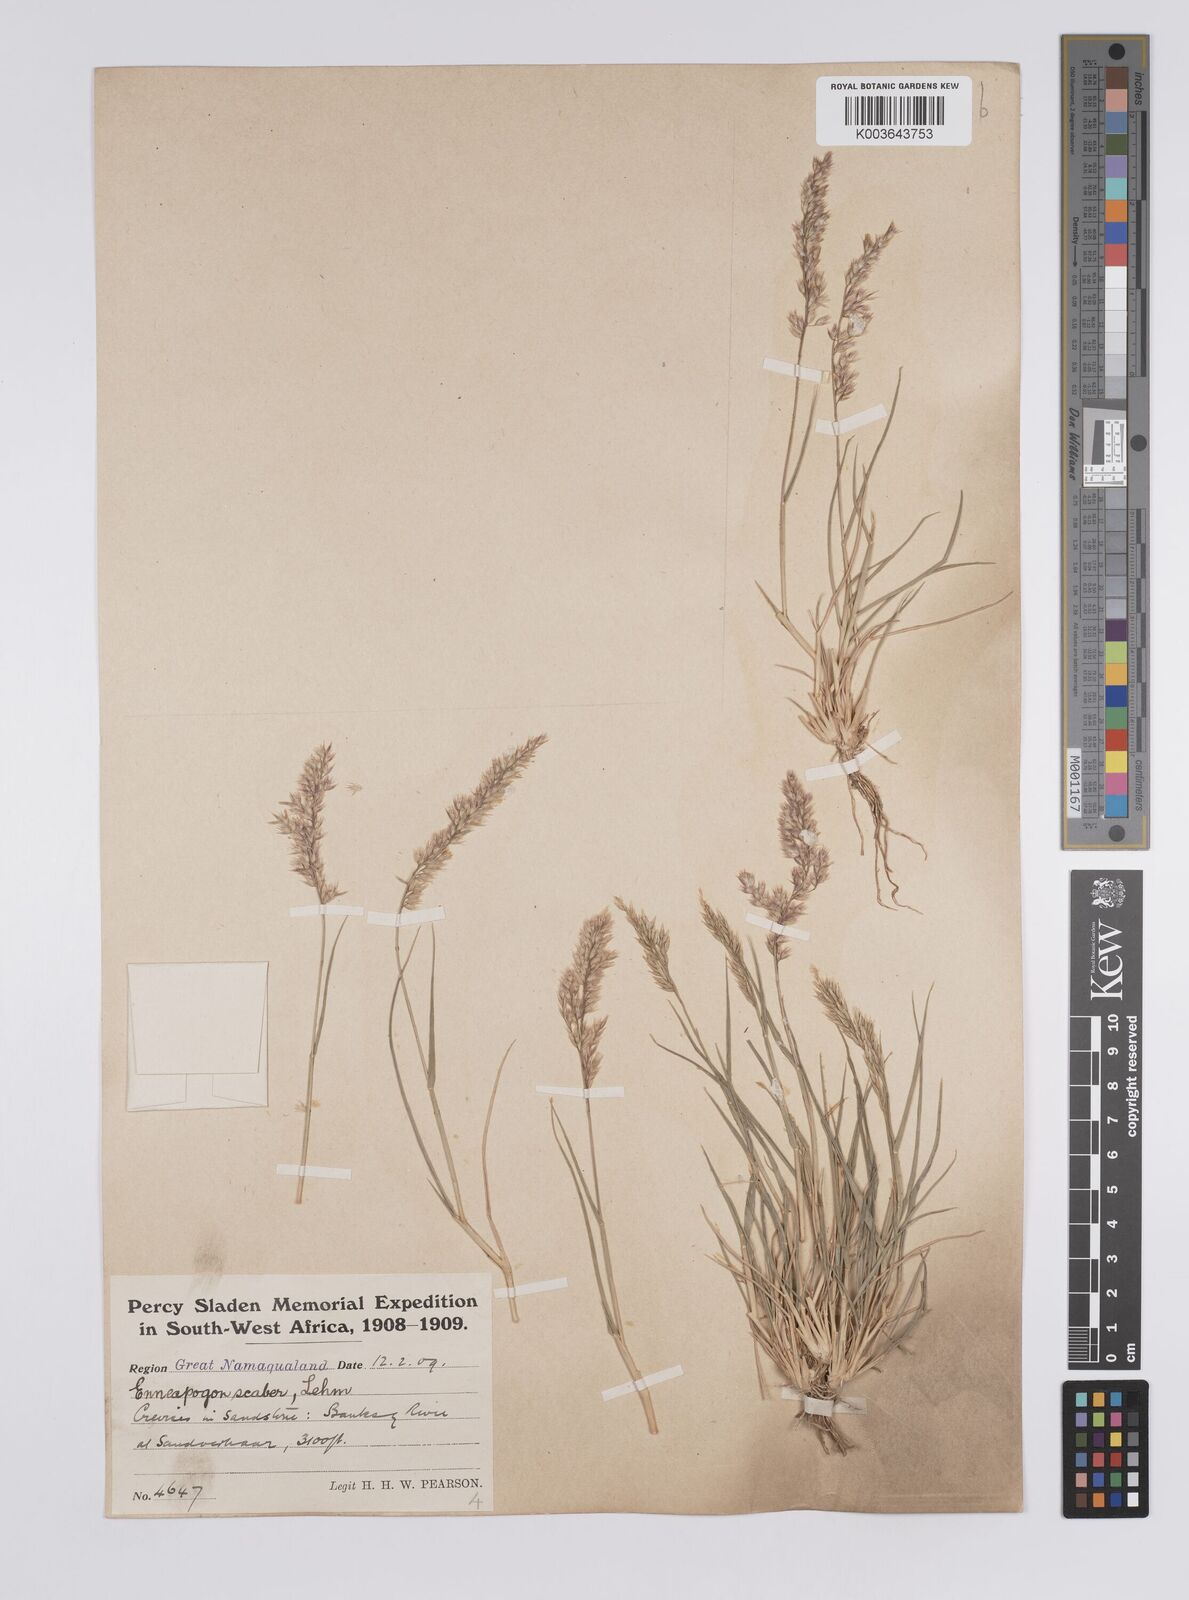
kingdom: Plantae
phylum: Tracheophyta
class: Liliopsida
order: Poales
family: Poaceae
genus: Enneapogon
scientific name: Enneapogon scaber
